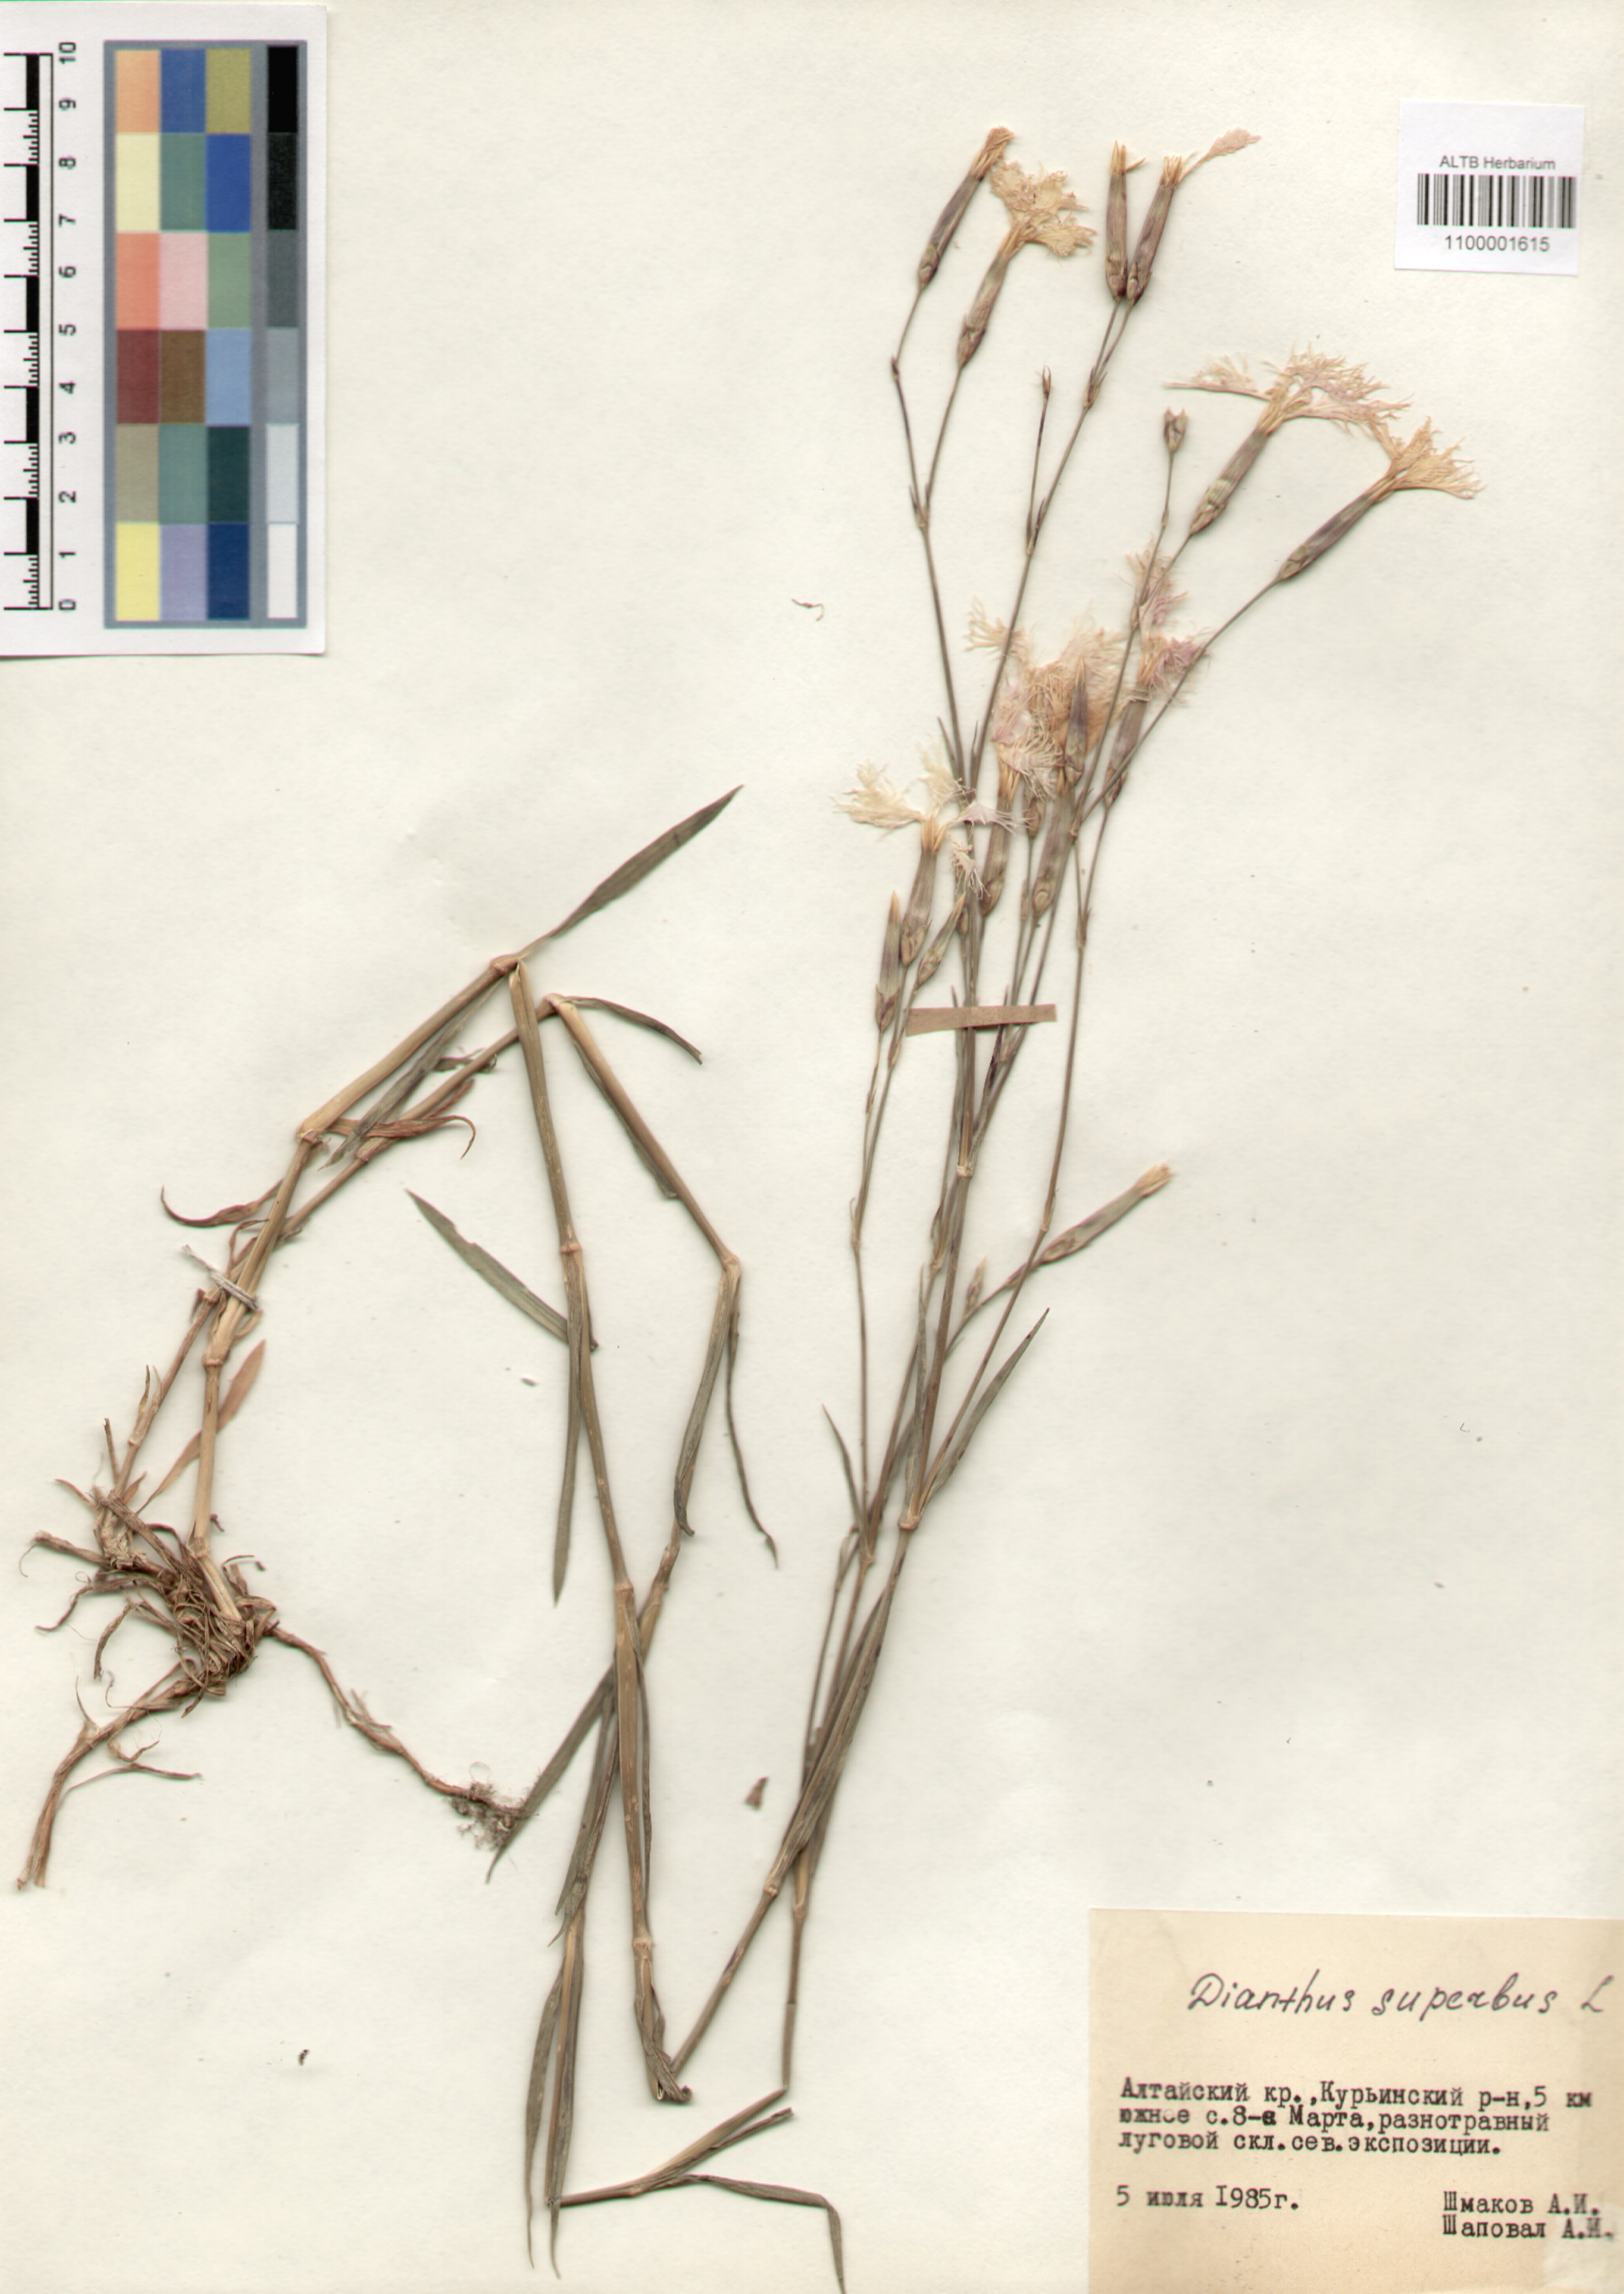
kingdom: Plantae
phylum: Tracheophyta
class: Magnoliopsida
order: Caryophyllales
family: Caryophyllaceae
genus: Dianthus
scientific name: Dianthus superbus
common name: Fringed pink
